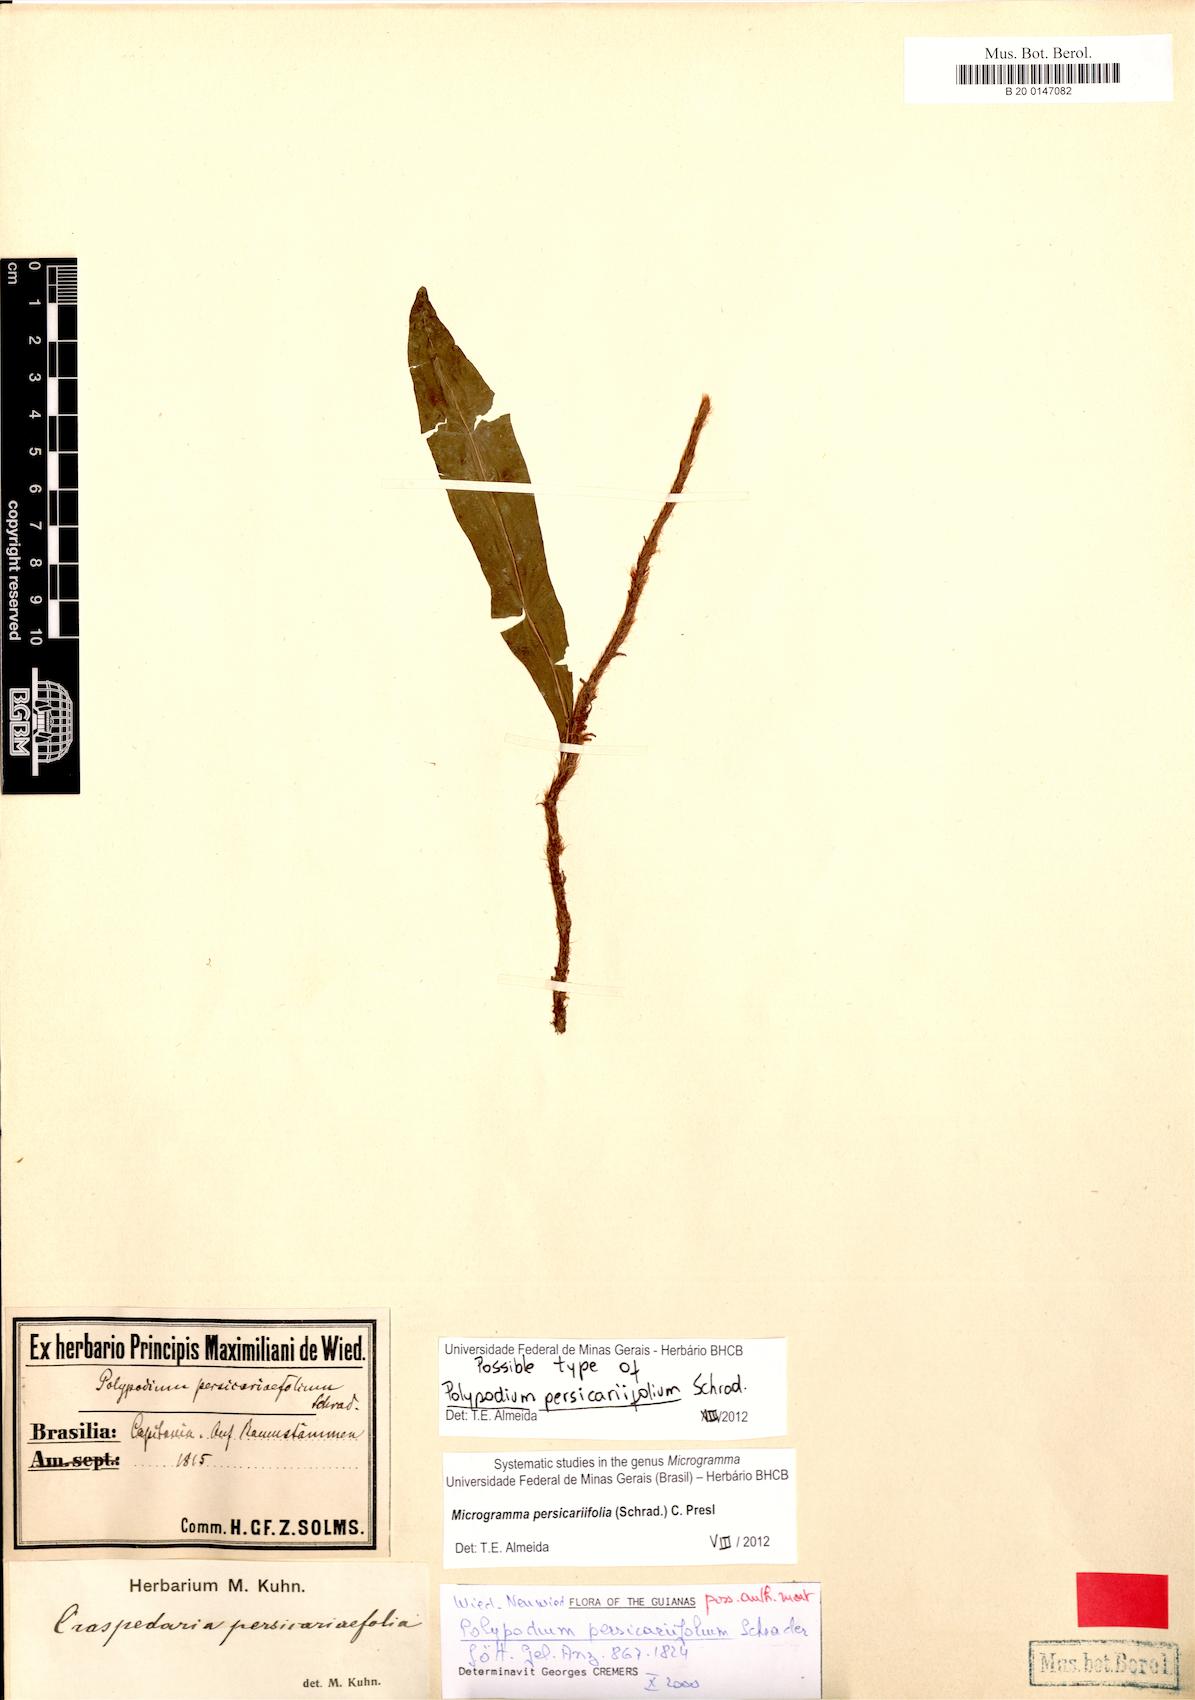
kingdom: Plantae
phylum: Tracheophyta
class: Polypodiopsida
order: Polypodiales
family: Polypodiaceae
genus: Microgramma
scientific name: Microgramma persicariifolia
